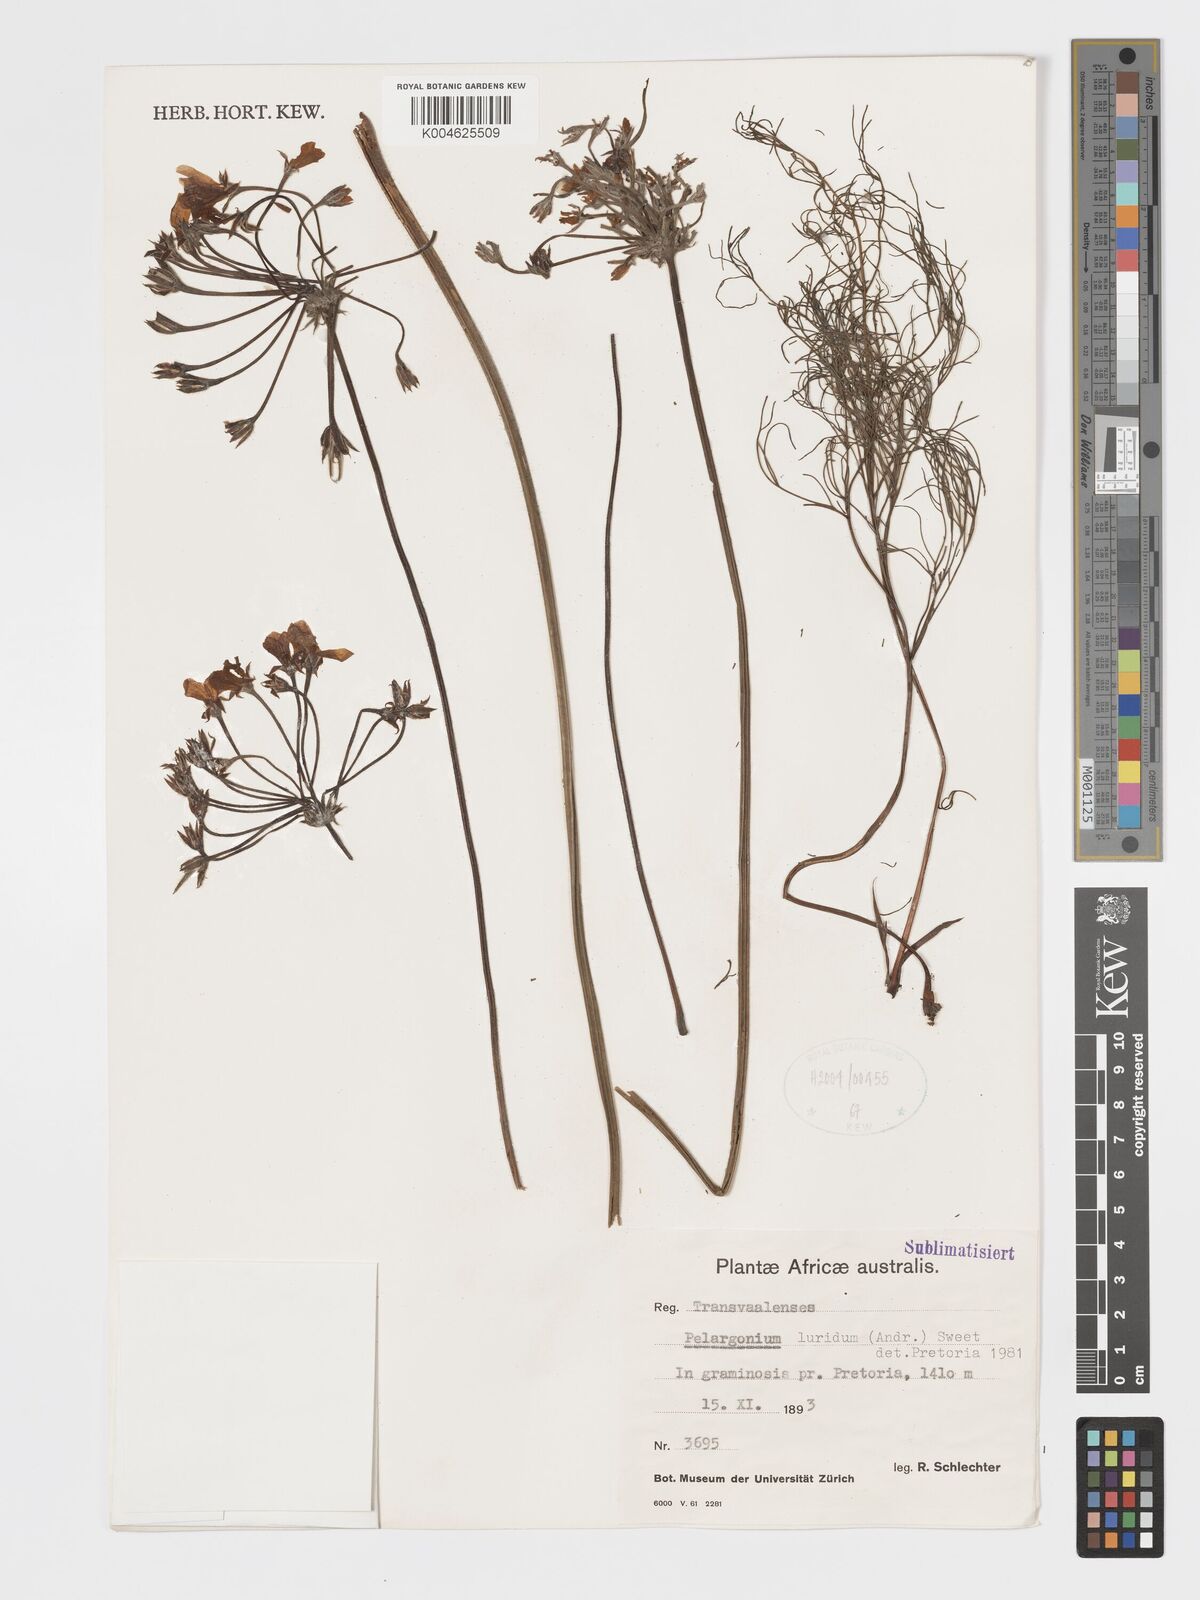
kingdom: Plantae
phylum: Tracheophyta
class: Magnoliopsida
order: Geraniales
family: Geraniaceae
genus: Pelargonium
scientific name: Pelargonium luridum
